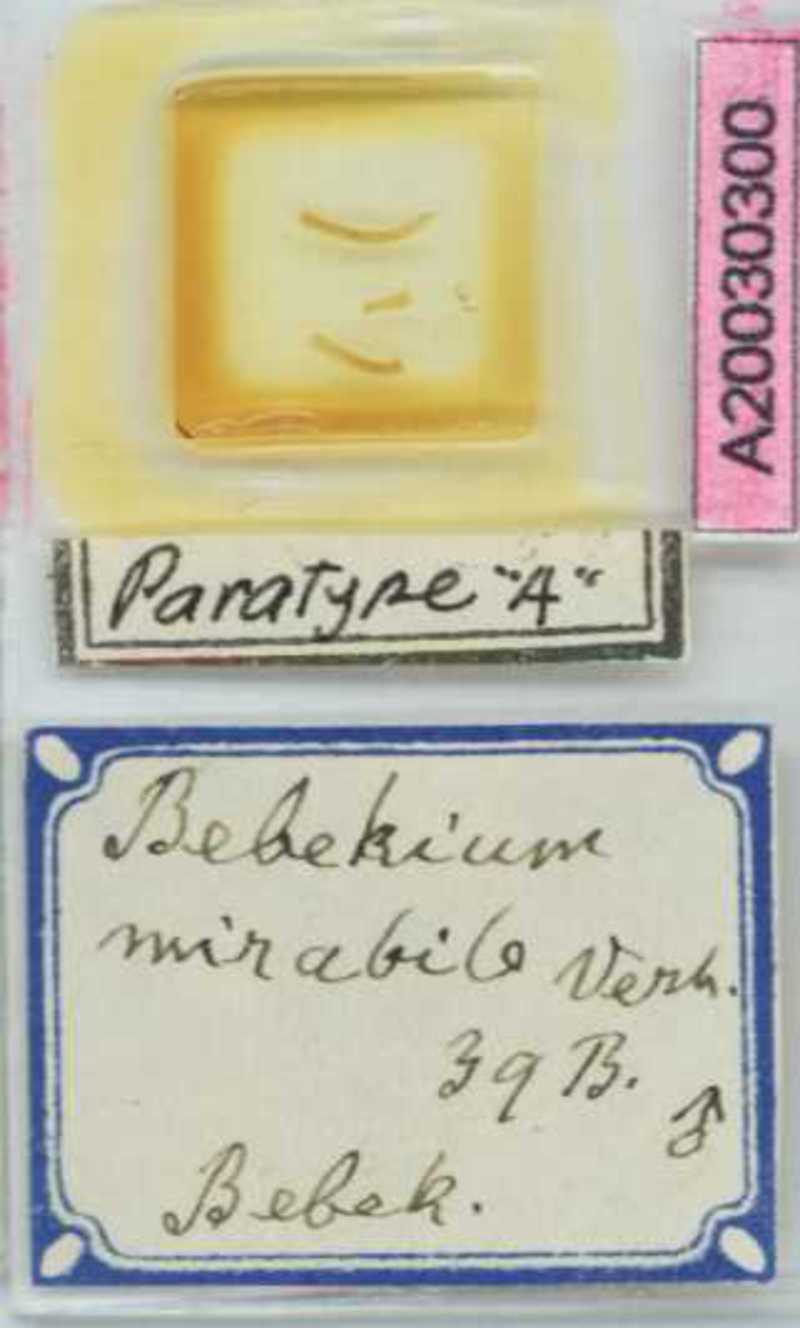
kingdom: Animalia
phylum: Arthropoda
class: Chilopoda
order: Geophilomorpha
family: Geophilidae
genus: Bebekium
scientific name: Bebekium mirabile
